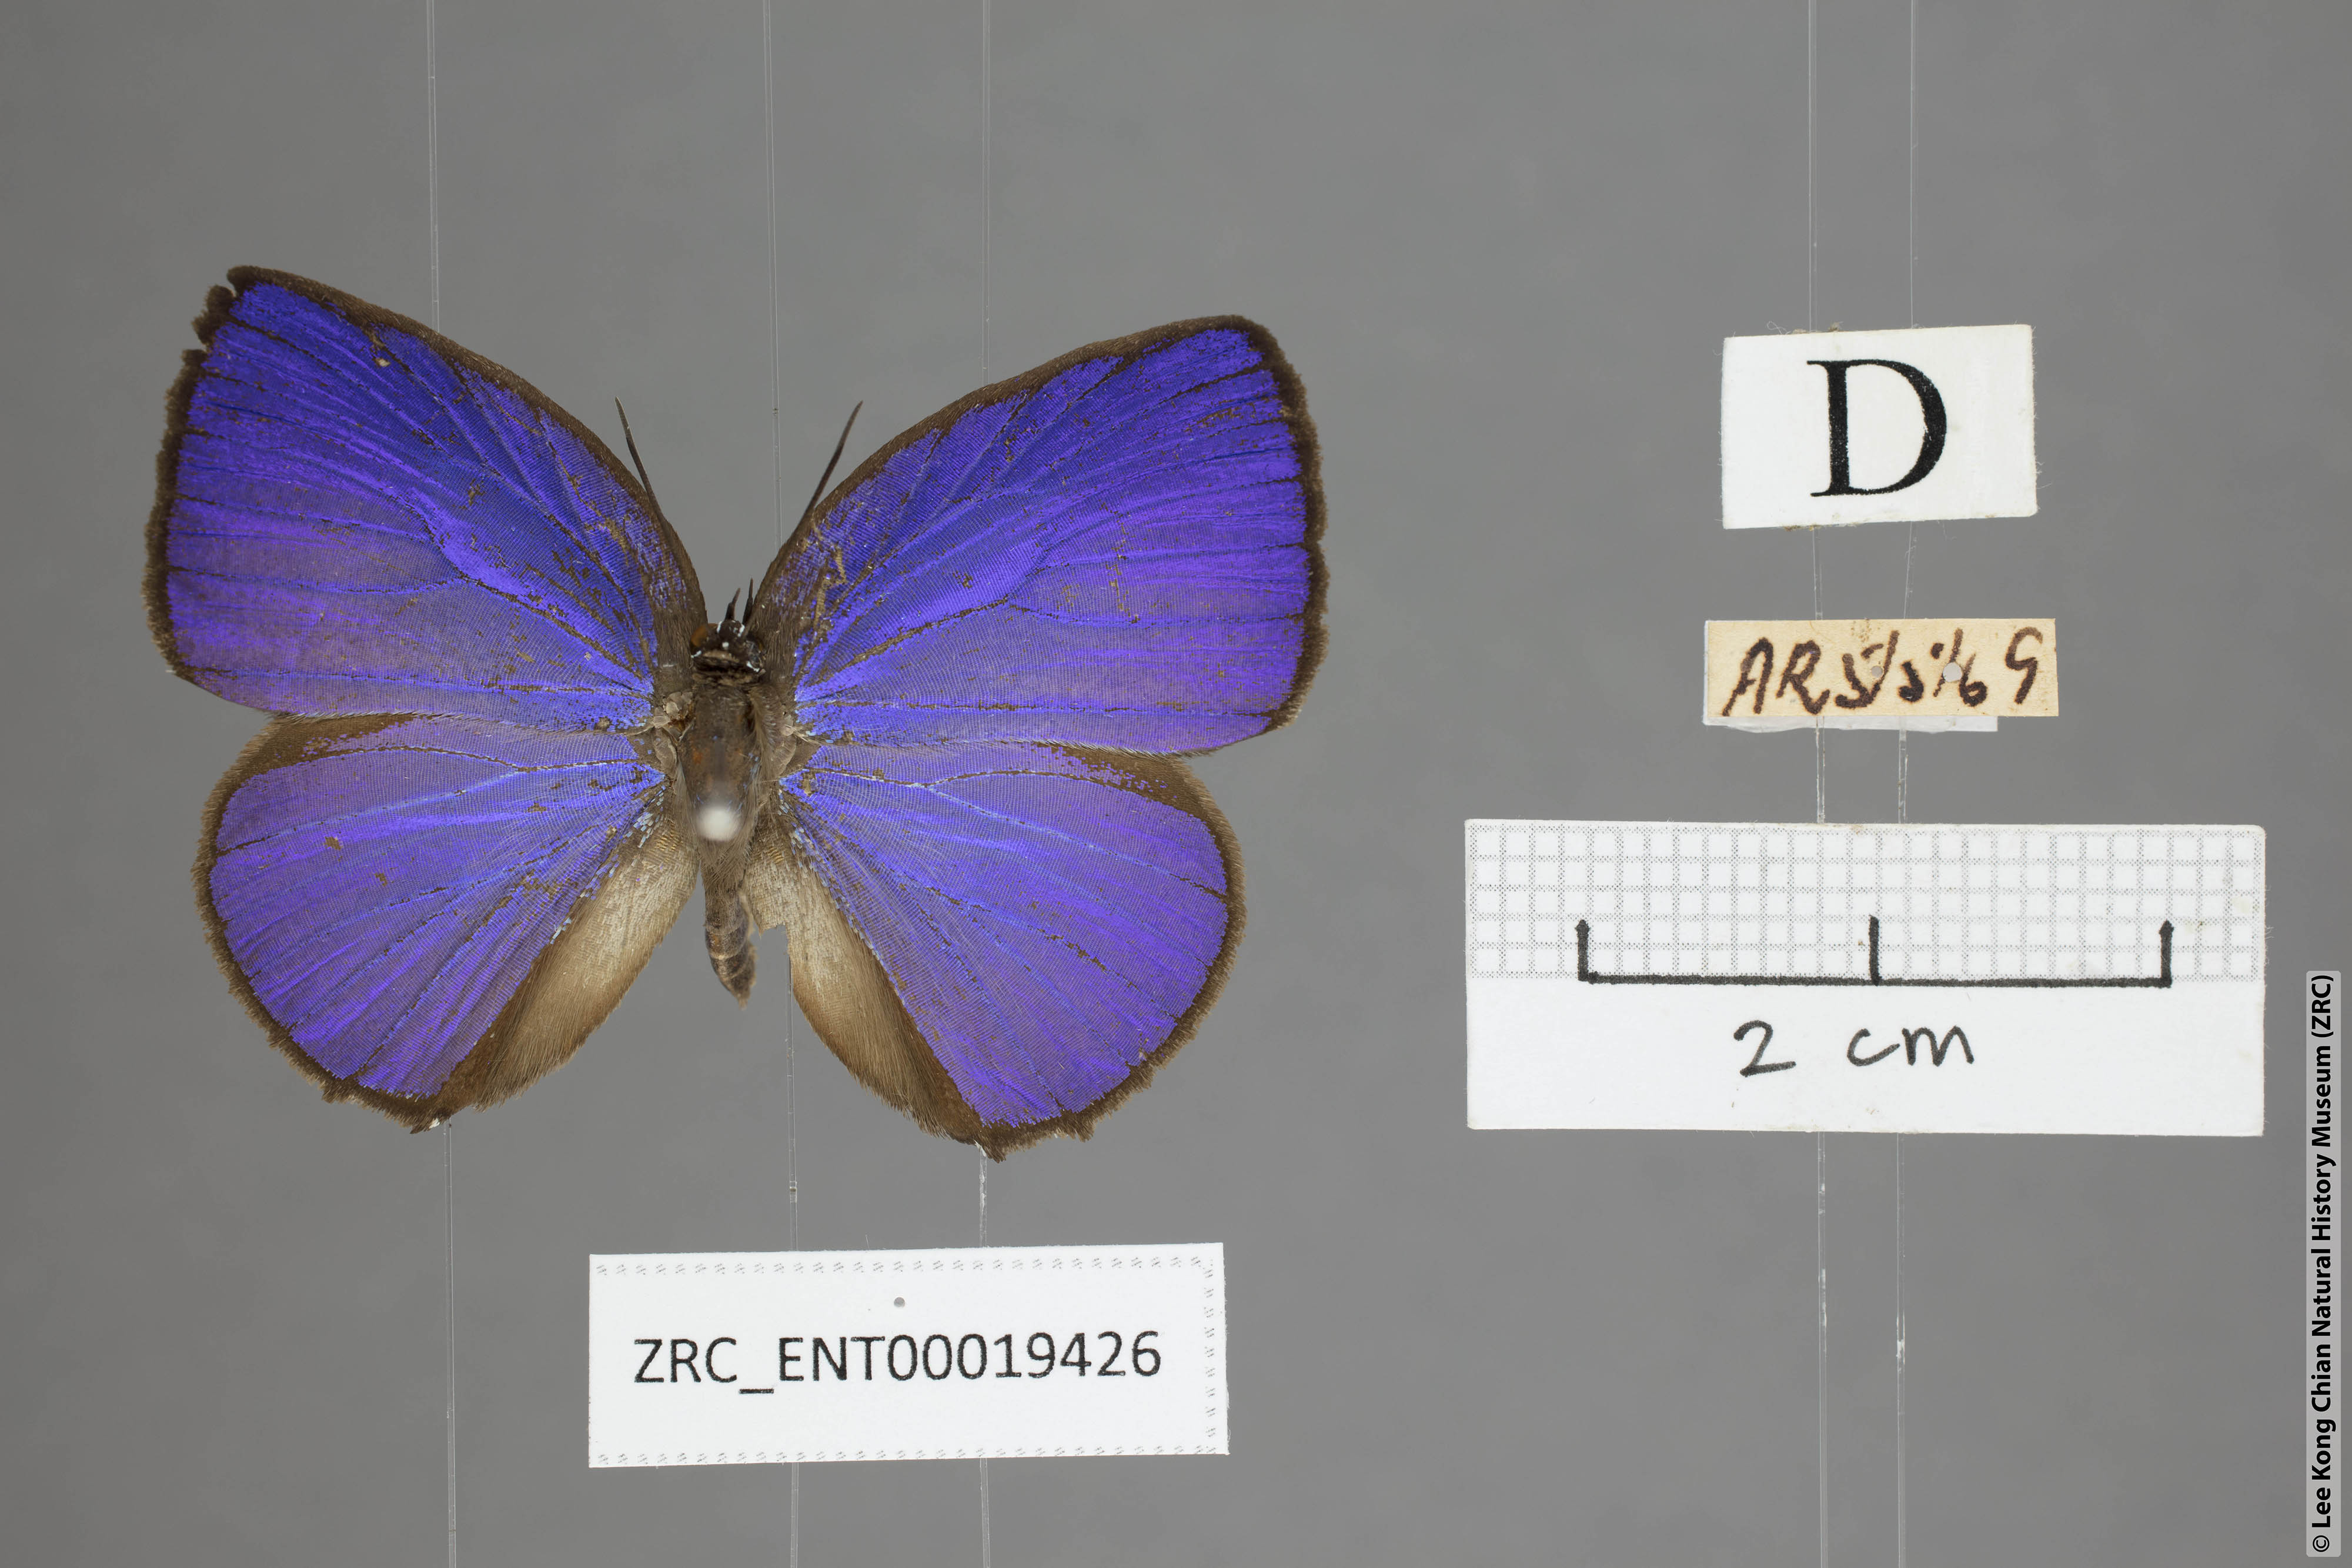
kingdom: Animalia
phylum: Arthropoda
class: Insecta
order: Lepidoptera
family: Lycaenidae
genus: Arhopala
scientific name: Arhopala epimuta
